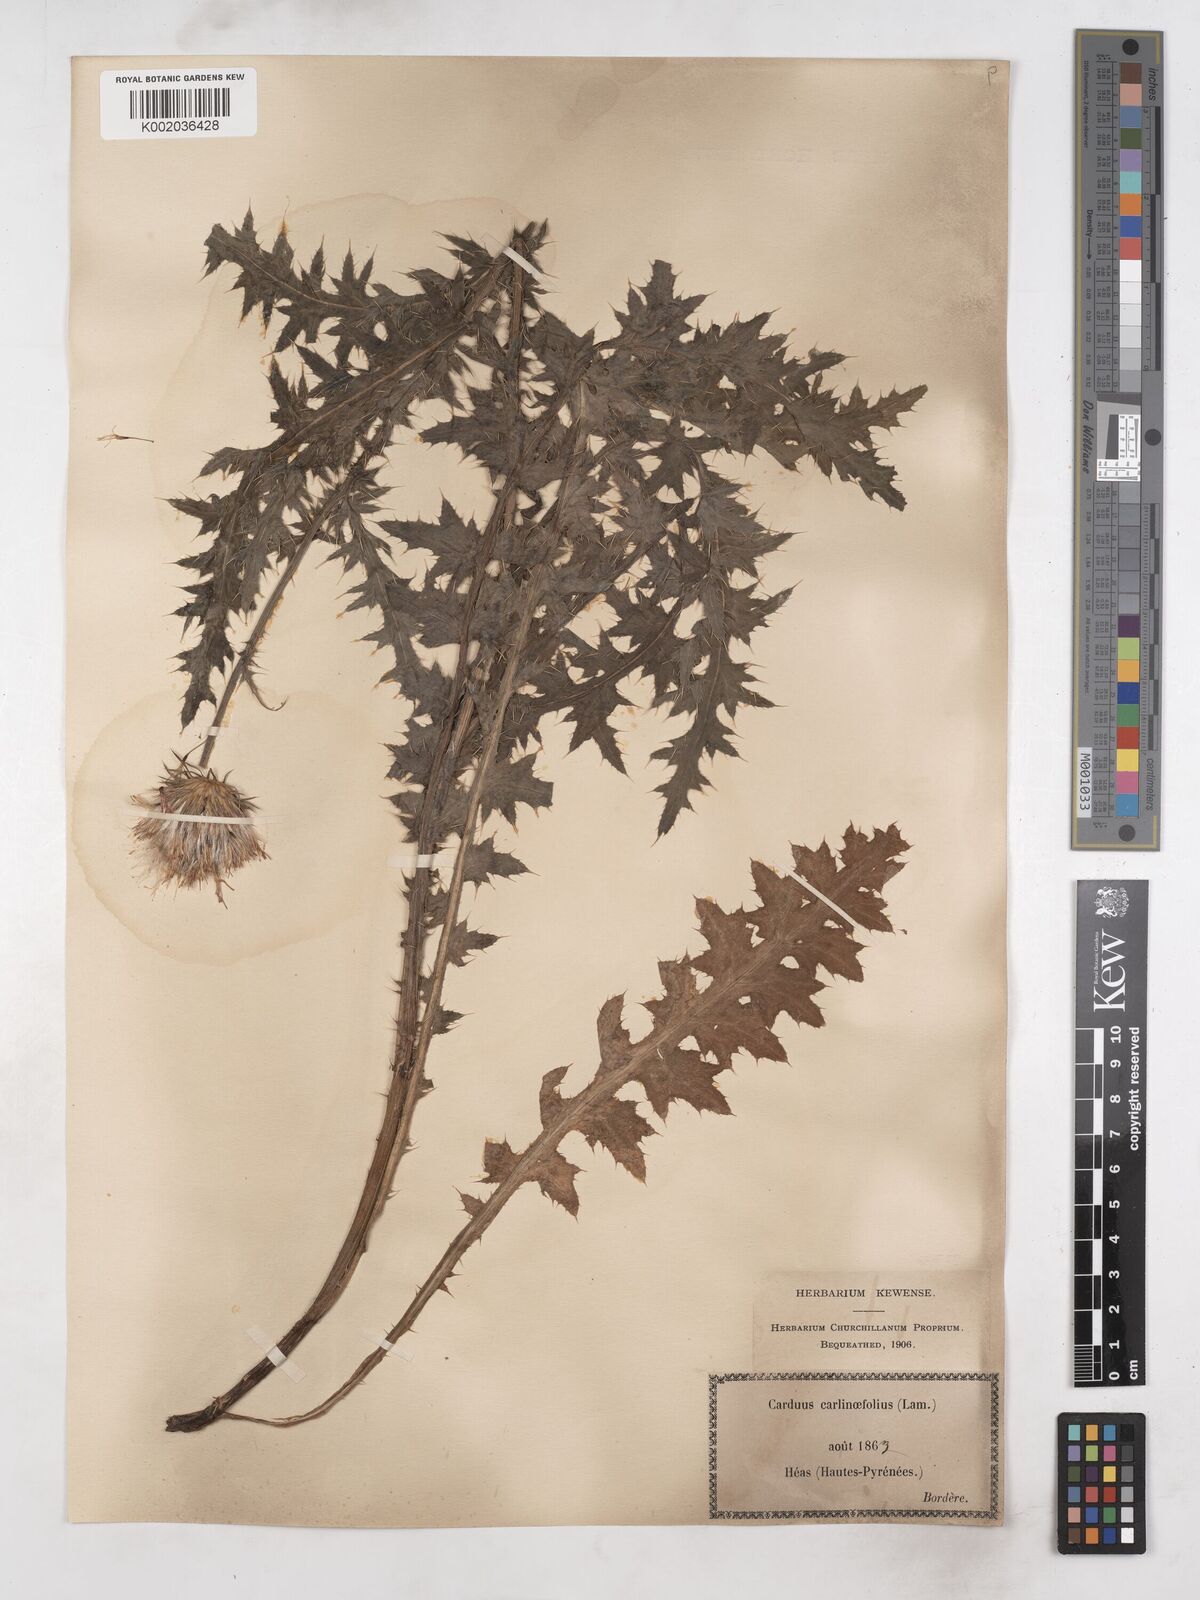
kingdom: Plantae
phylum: Tracheophyta
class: Magnoliopsida
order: Asterales
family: Asteraceae
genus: Carduus
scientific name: Carduus carlinifolius
